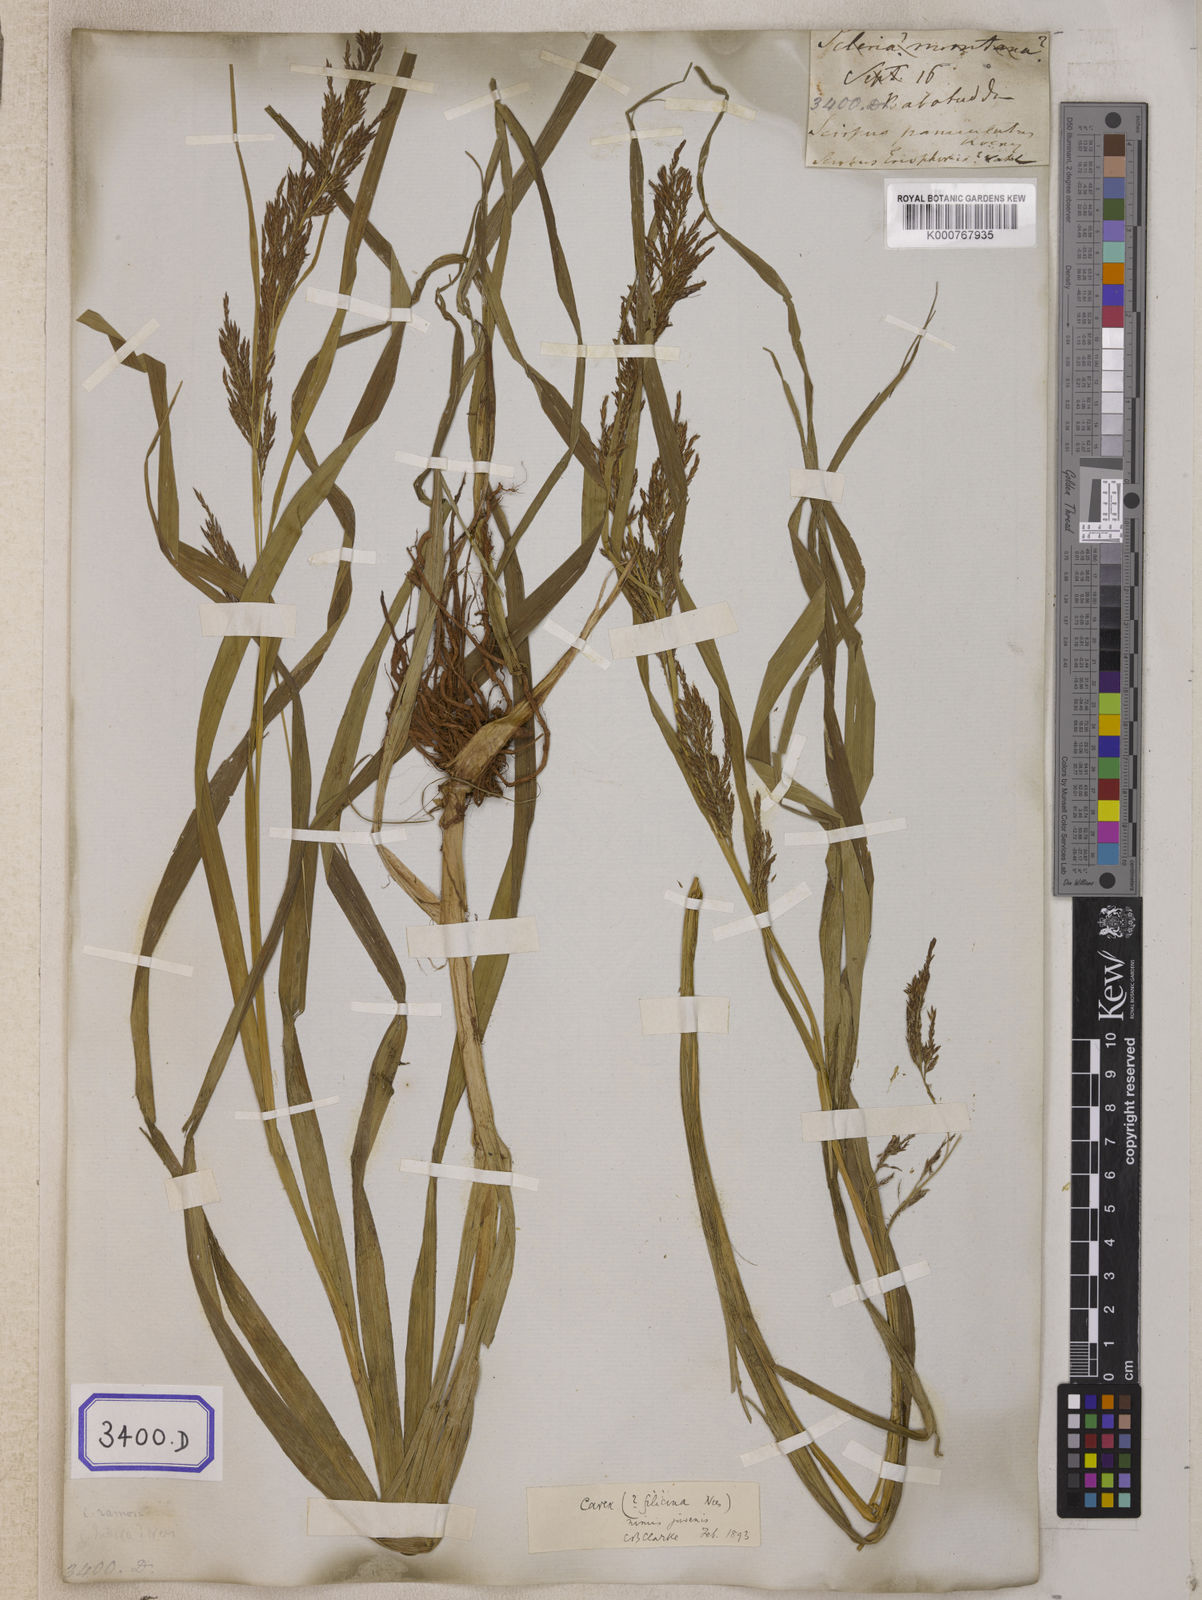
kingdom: Plantae
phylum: Tracheophyta
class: Liliopsida
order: Poales
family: Cyperaceae
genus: Carex
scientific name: Carex
